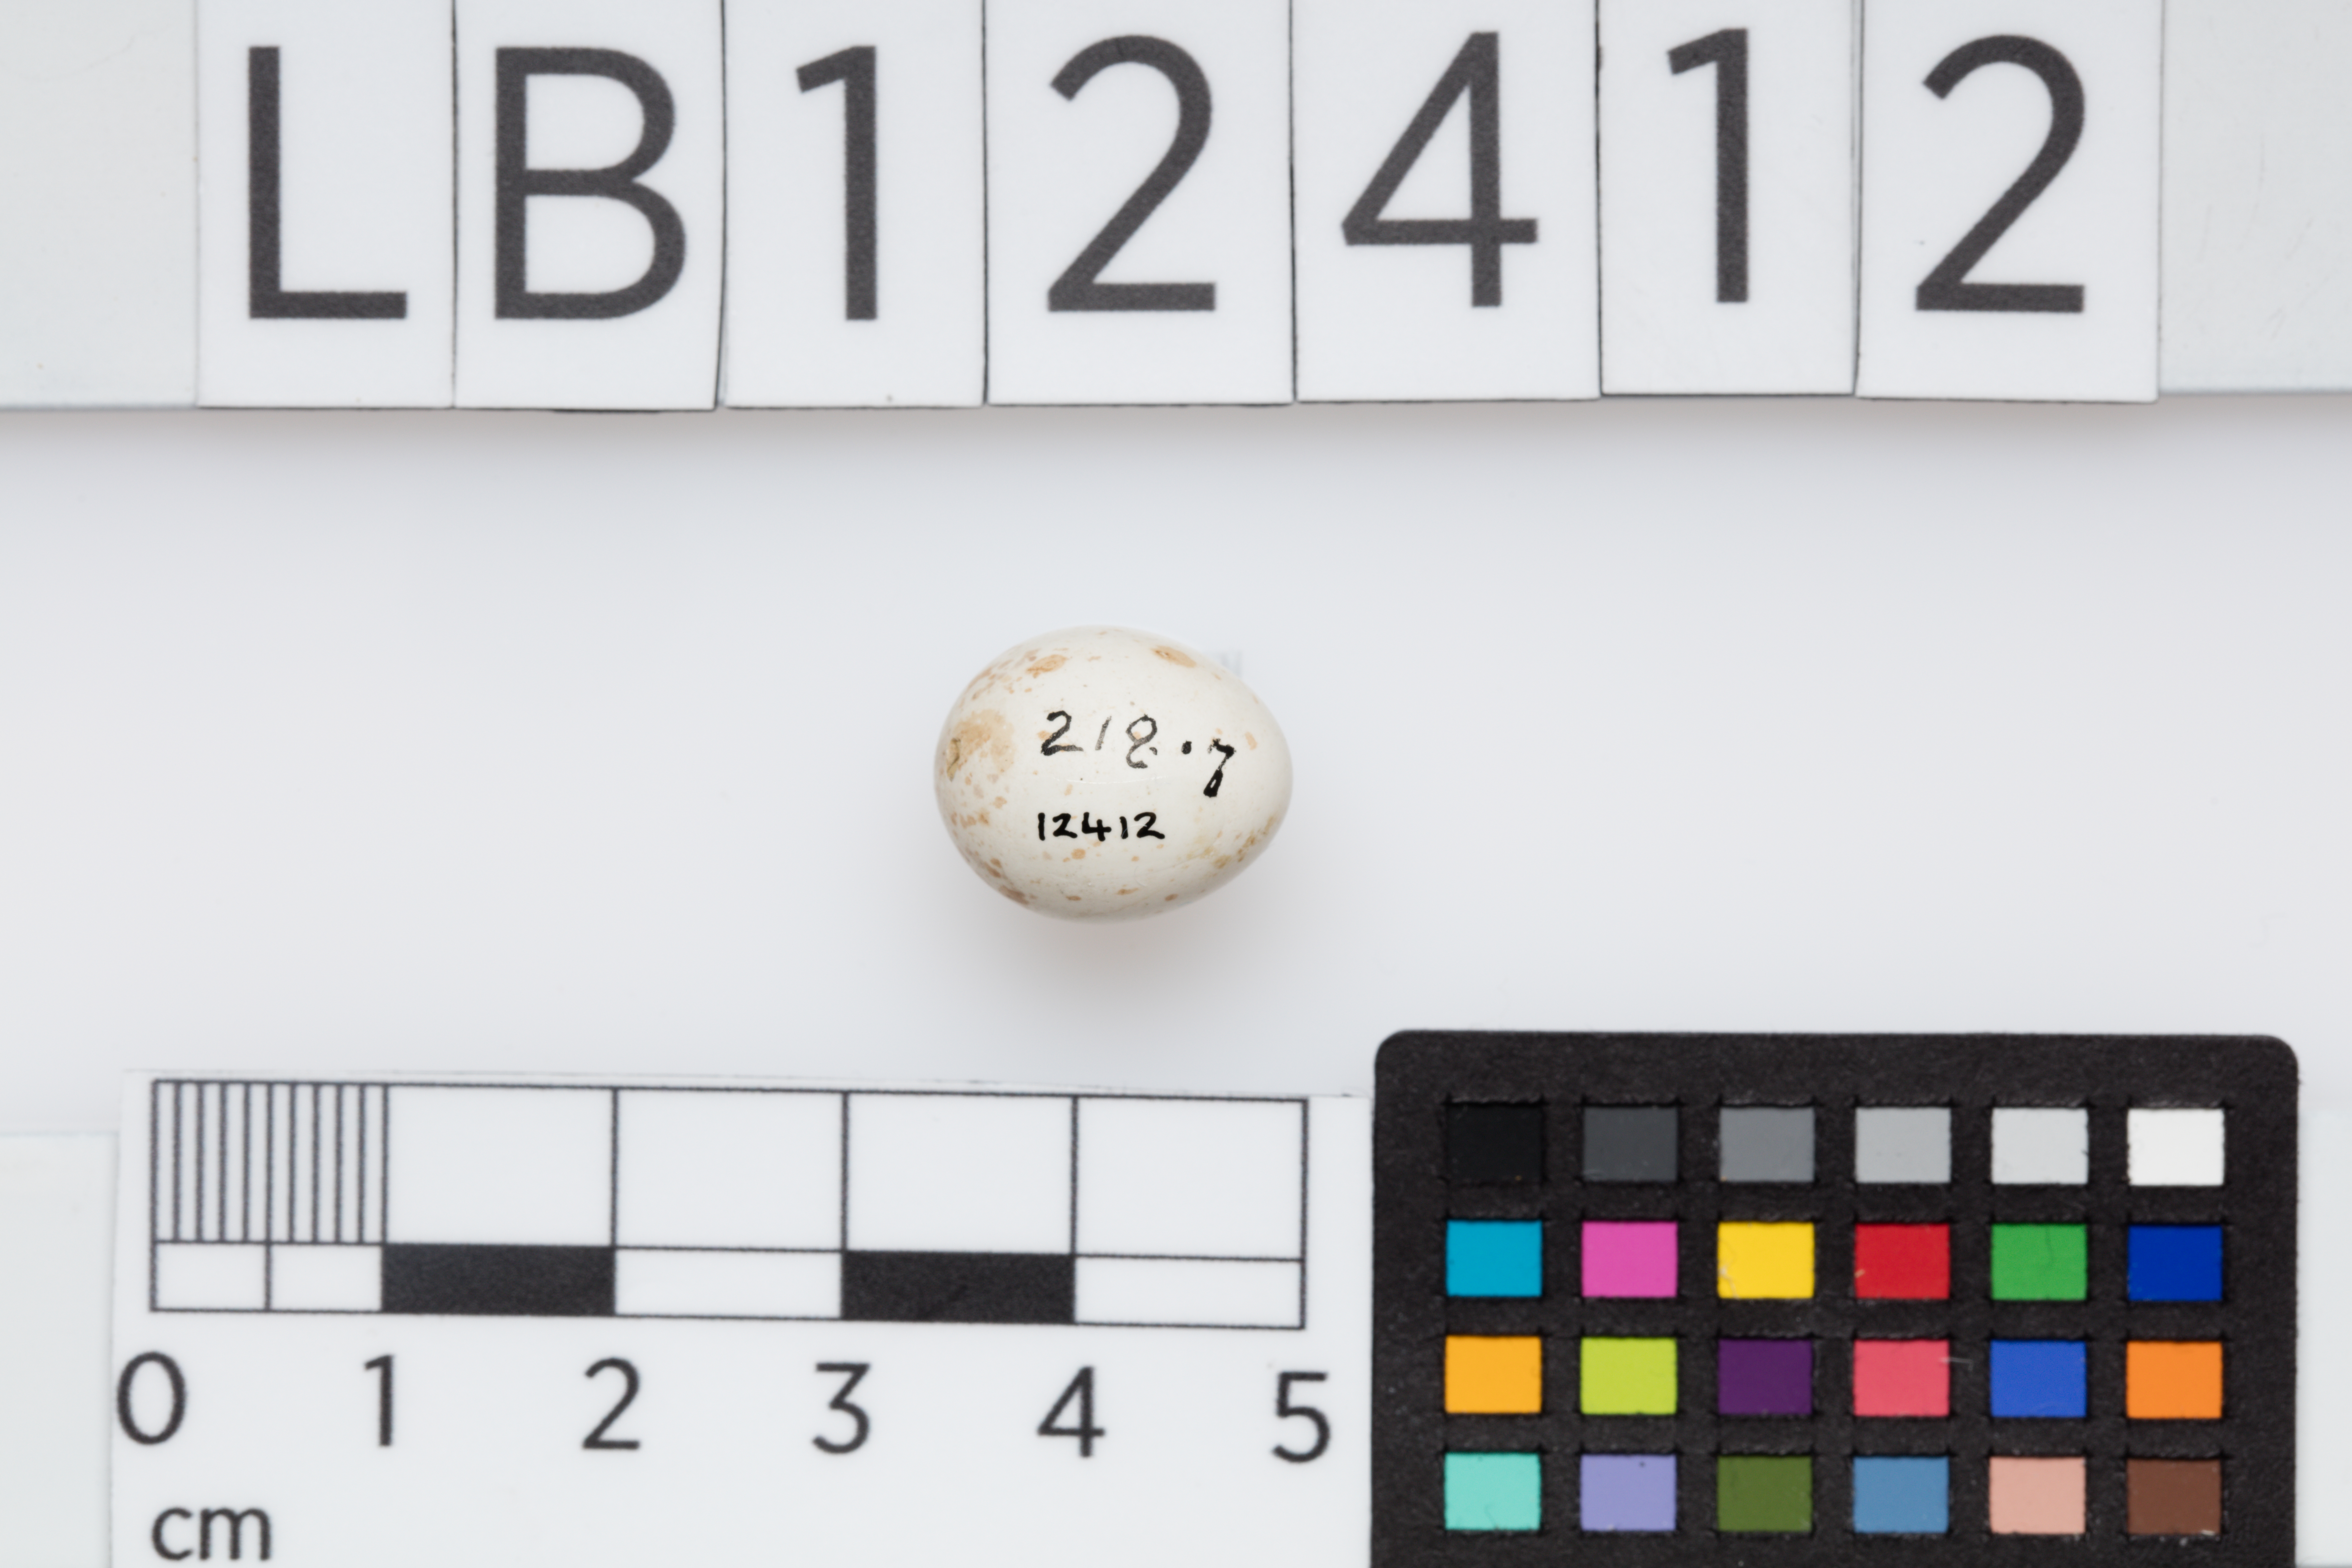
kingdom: Animalia
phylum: Chordata
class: Aves
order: Passeriformes
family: Certhiidae
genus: Certhia
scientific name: Certhia familiaris
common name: Eurasian treecreeper
